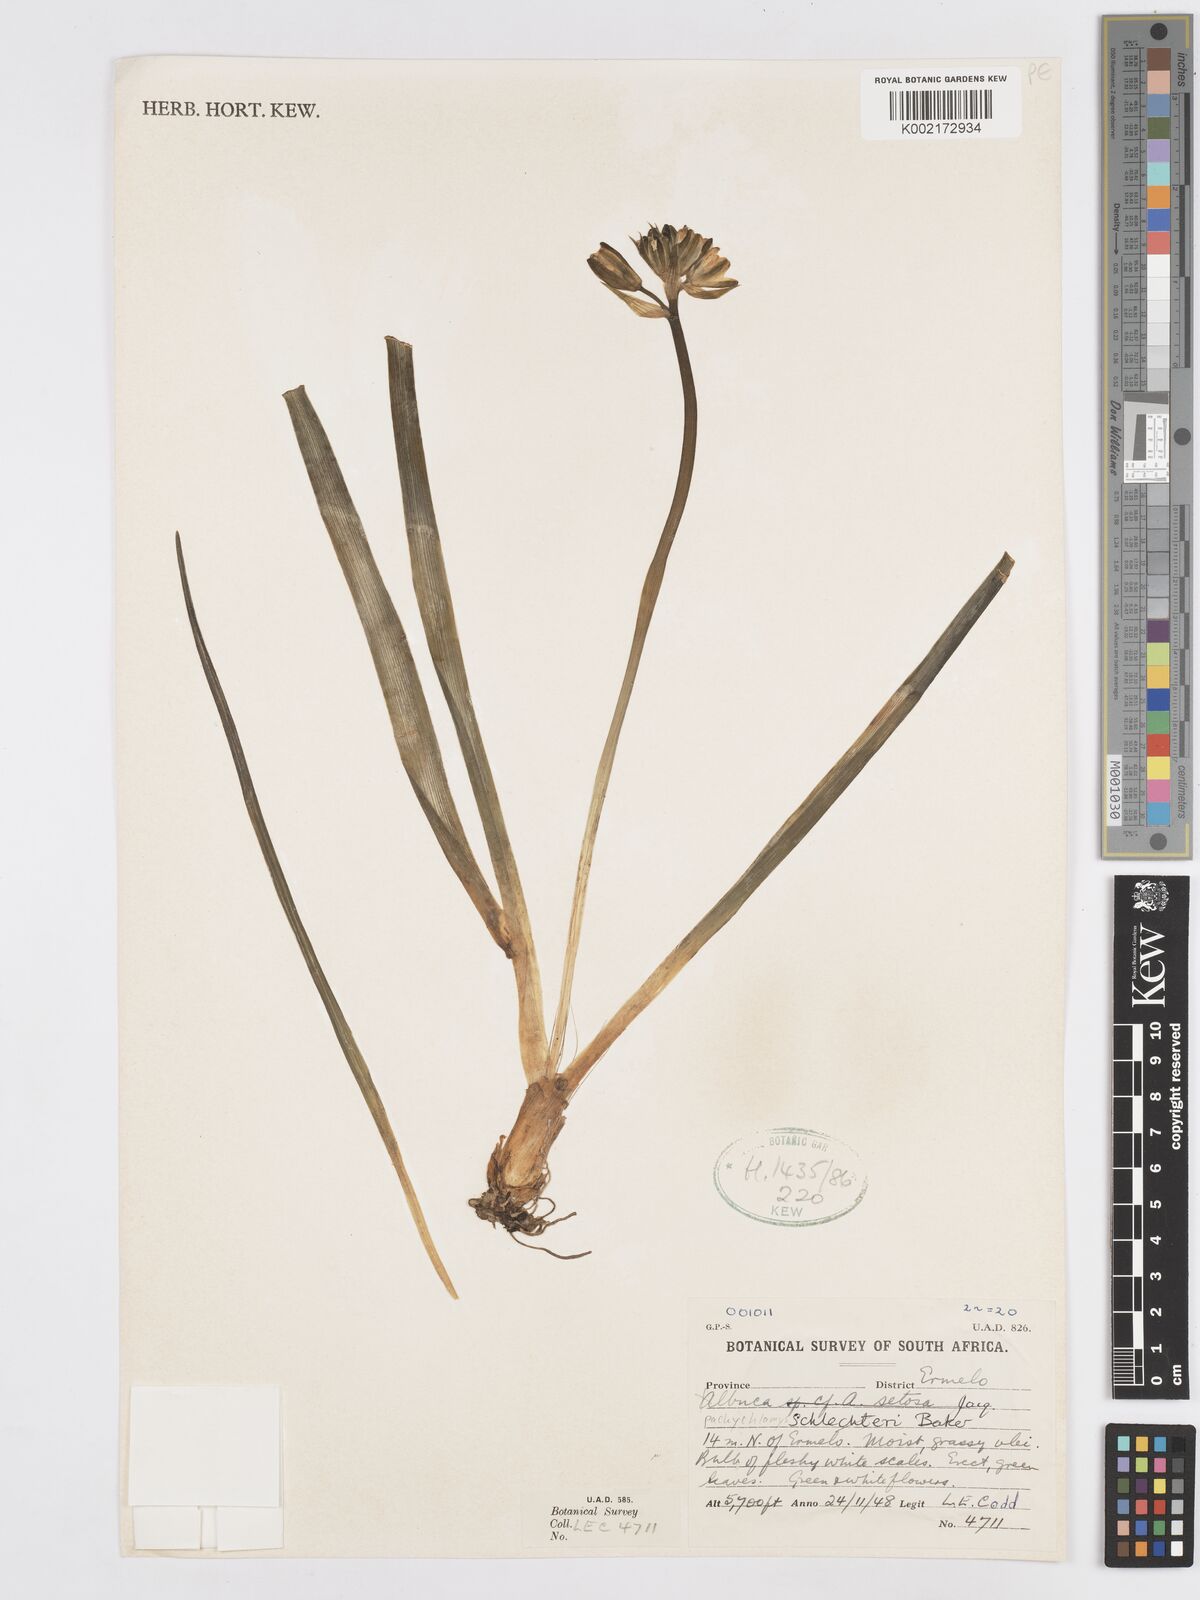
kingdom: Plantae
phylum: Tracheophyta
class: Liliopsida
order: Asparagales
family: Asparagaceae
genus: Albuca
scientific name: Albuca setosa
